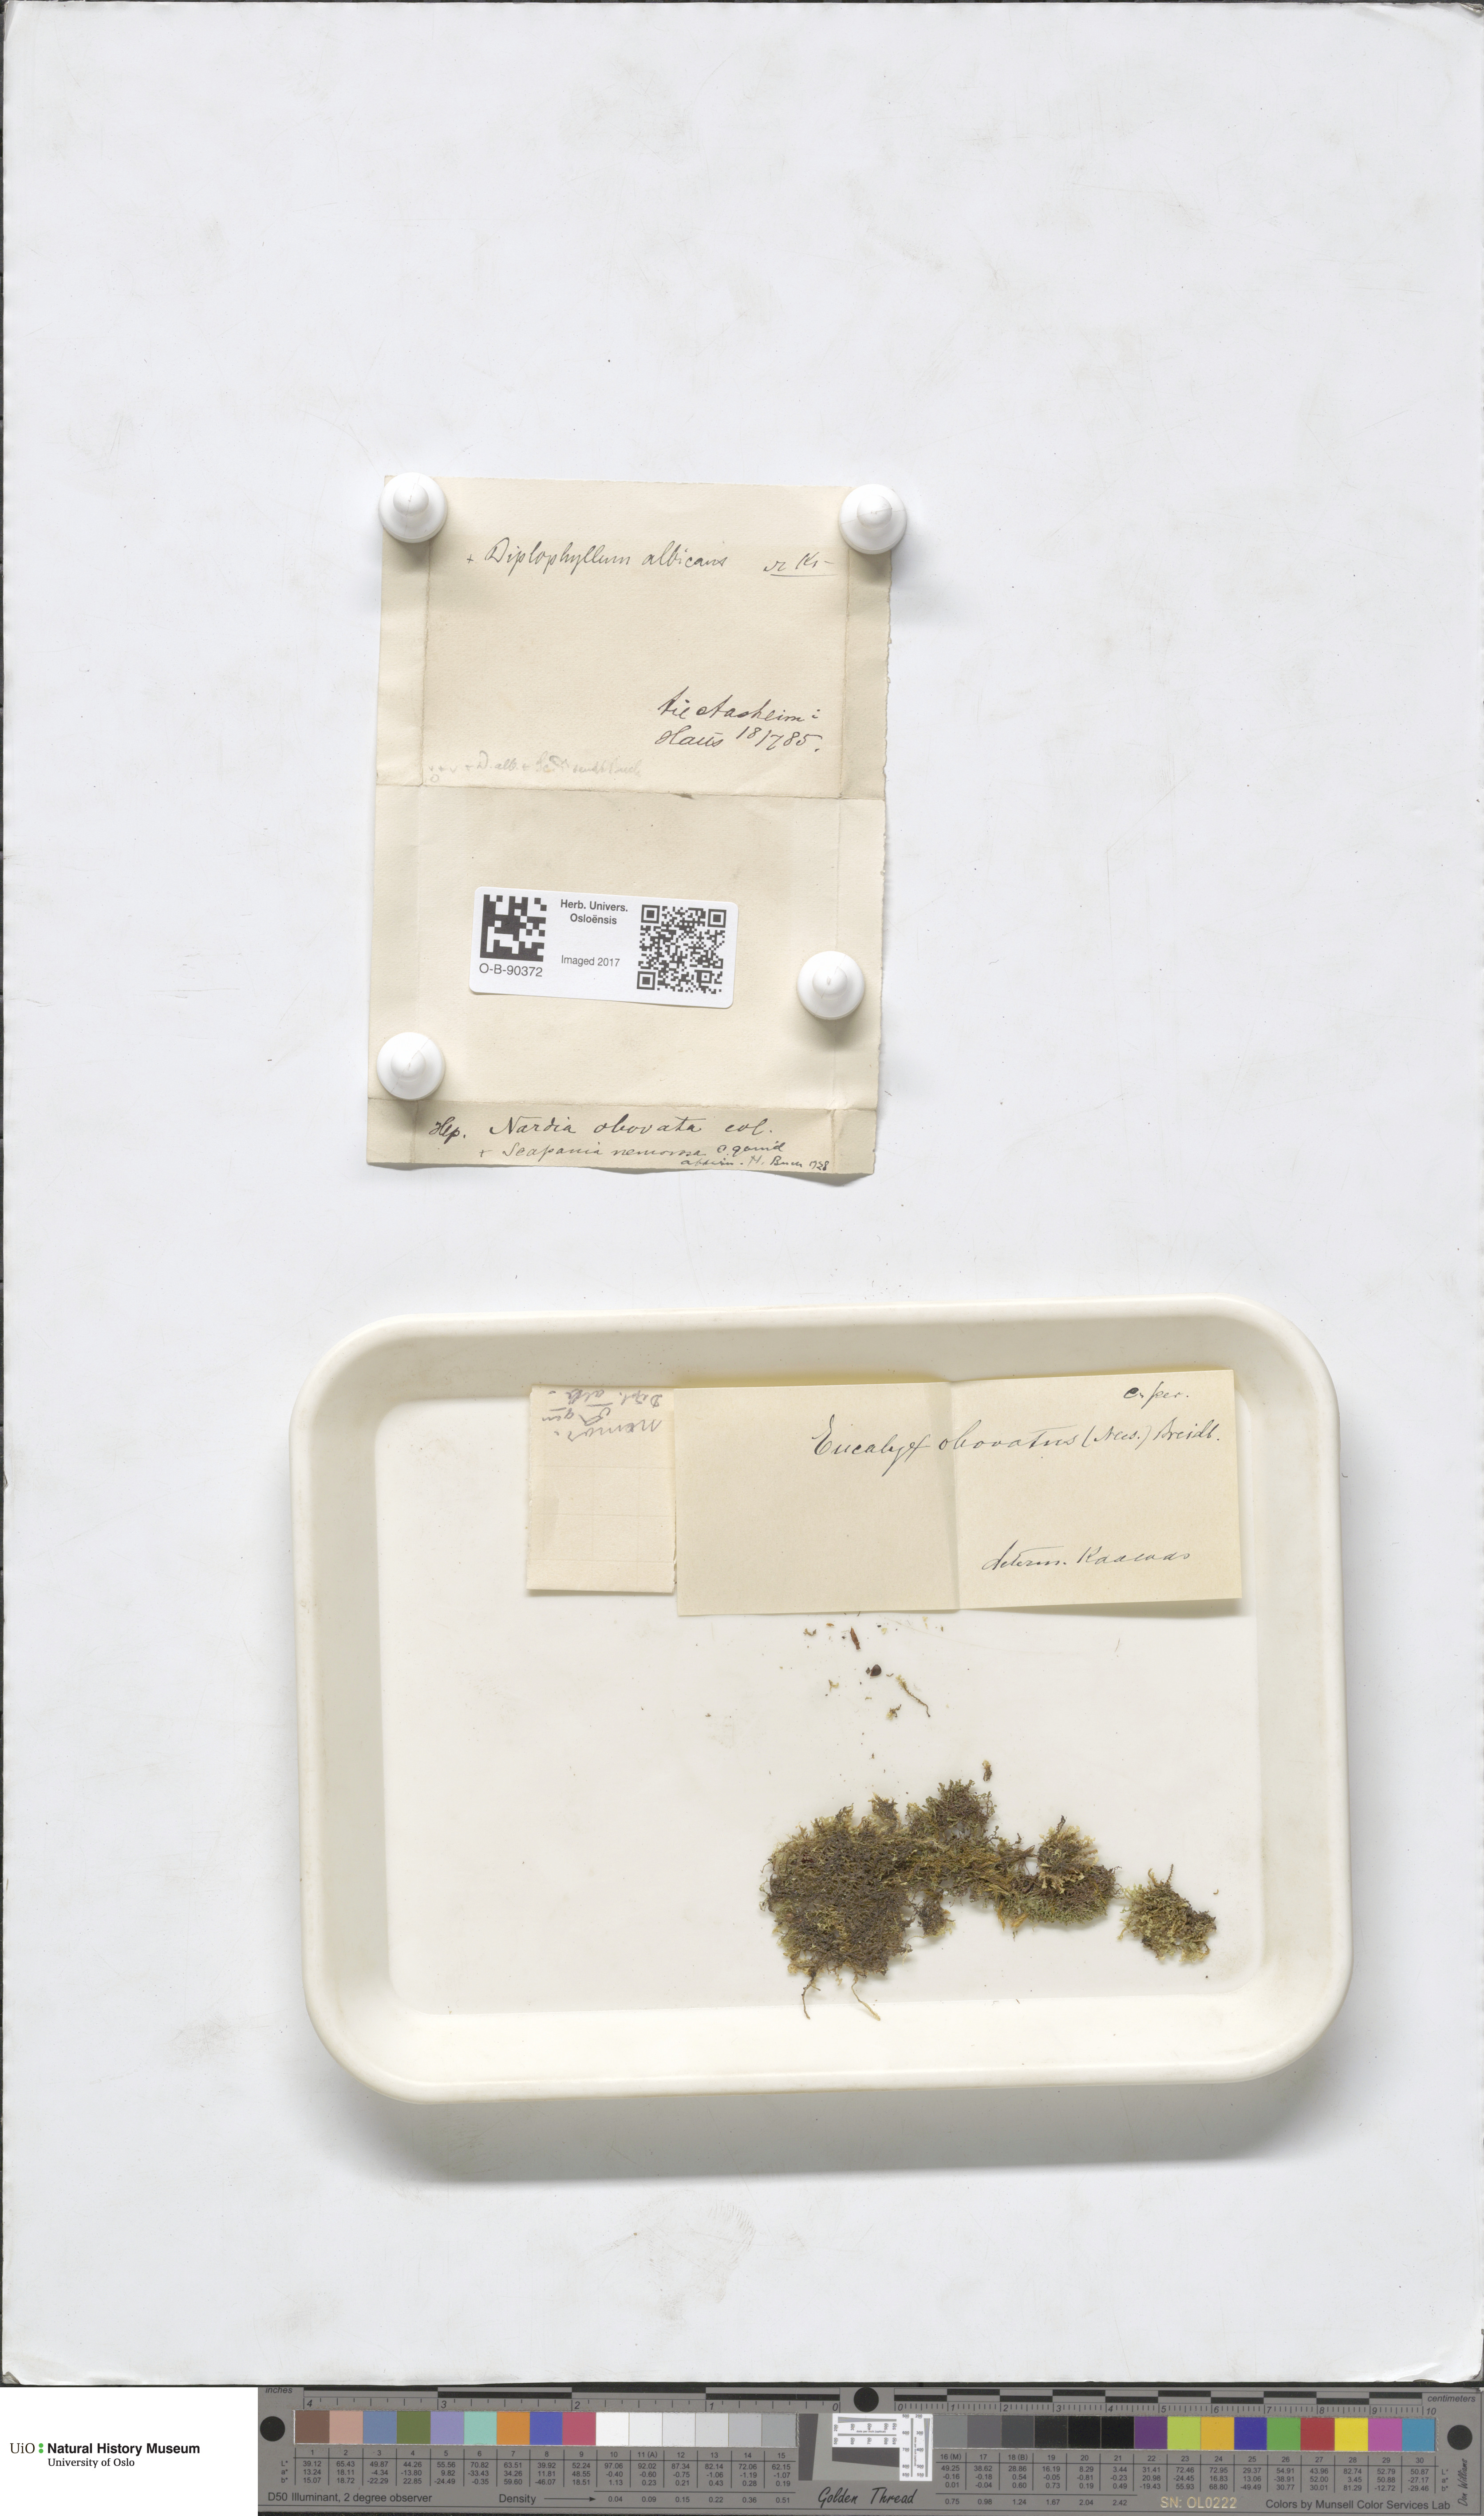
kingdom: Plantae
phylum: Marchantiophyta
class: Jungermanniopsida
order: Jungermanniales
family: Solenostomataceae
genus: Solenostoma
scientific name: Solenostoma obovatum
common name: Egg flapwort
